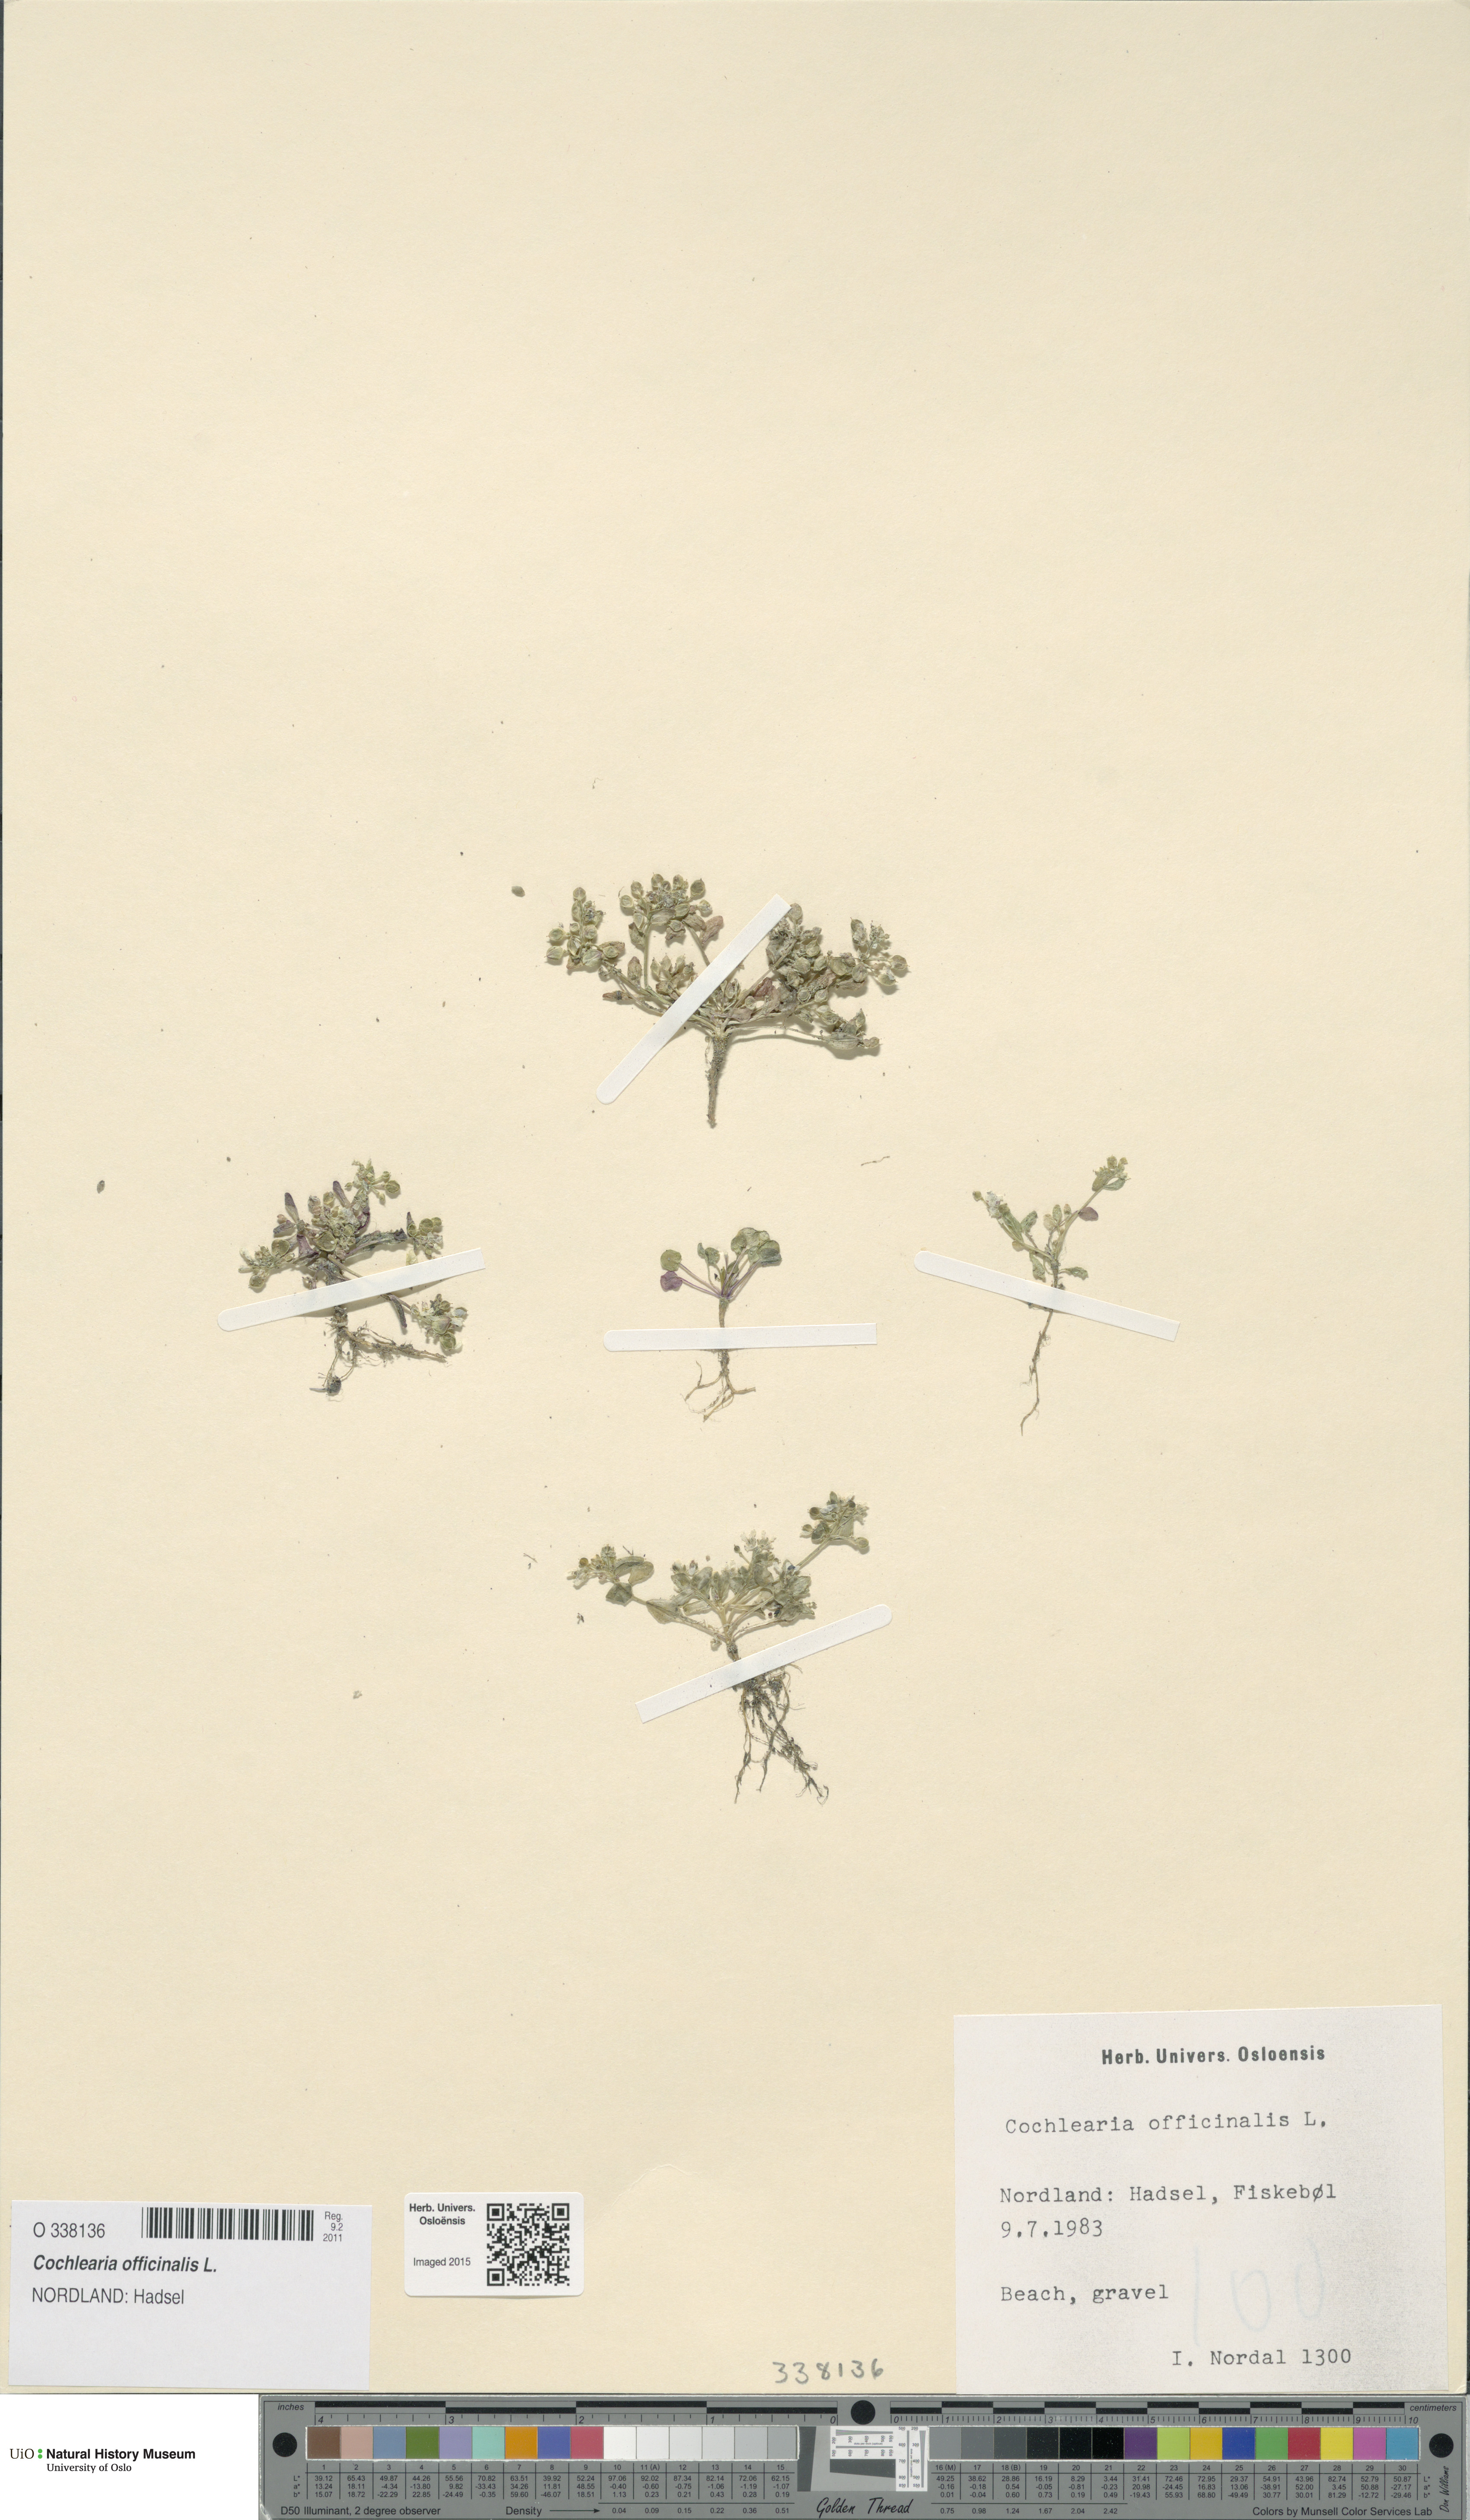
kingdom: Plantae
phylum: Tracheophyta
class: Magnoliopsida
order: Brassicales
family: Brassicaceae
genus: Cochlearia
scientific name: Cochlearia officinalis
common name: Scurvy-grass
